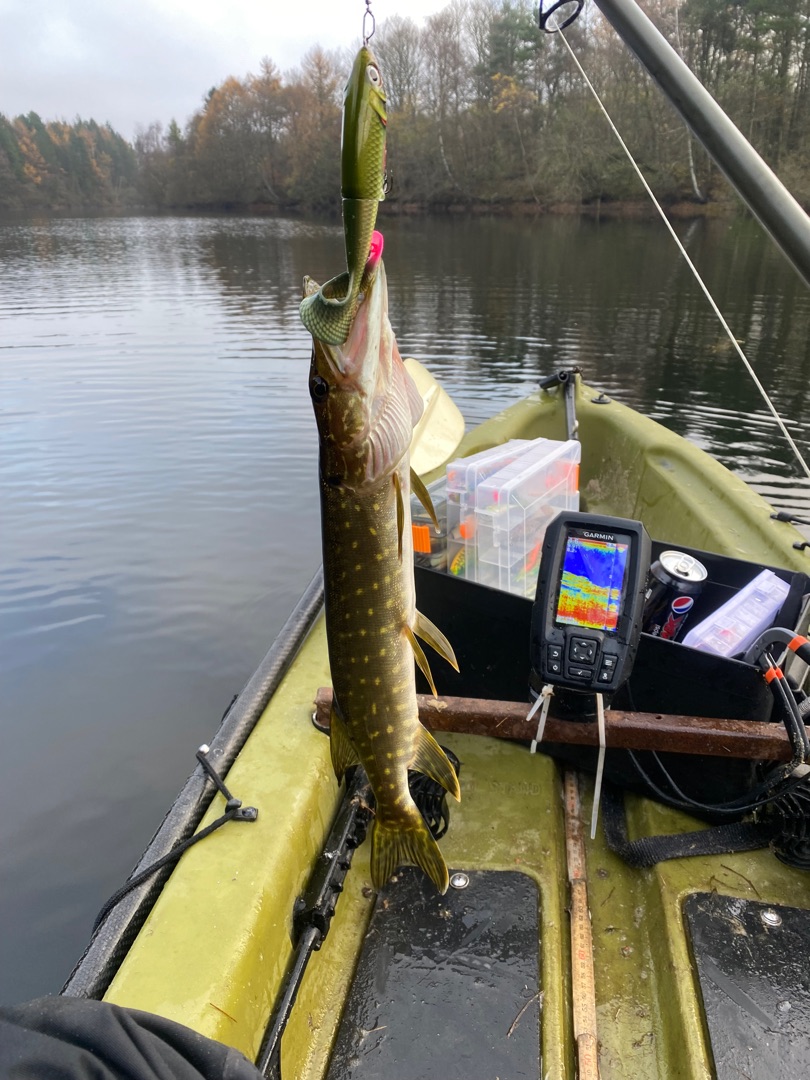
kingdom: Animalia
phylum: Chordata
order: Esociformes
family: Esocidae
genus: Esox
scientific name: Esox lucius
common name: Gedde
